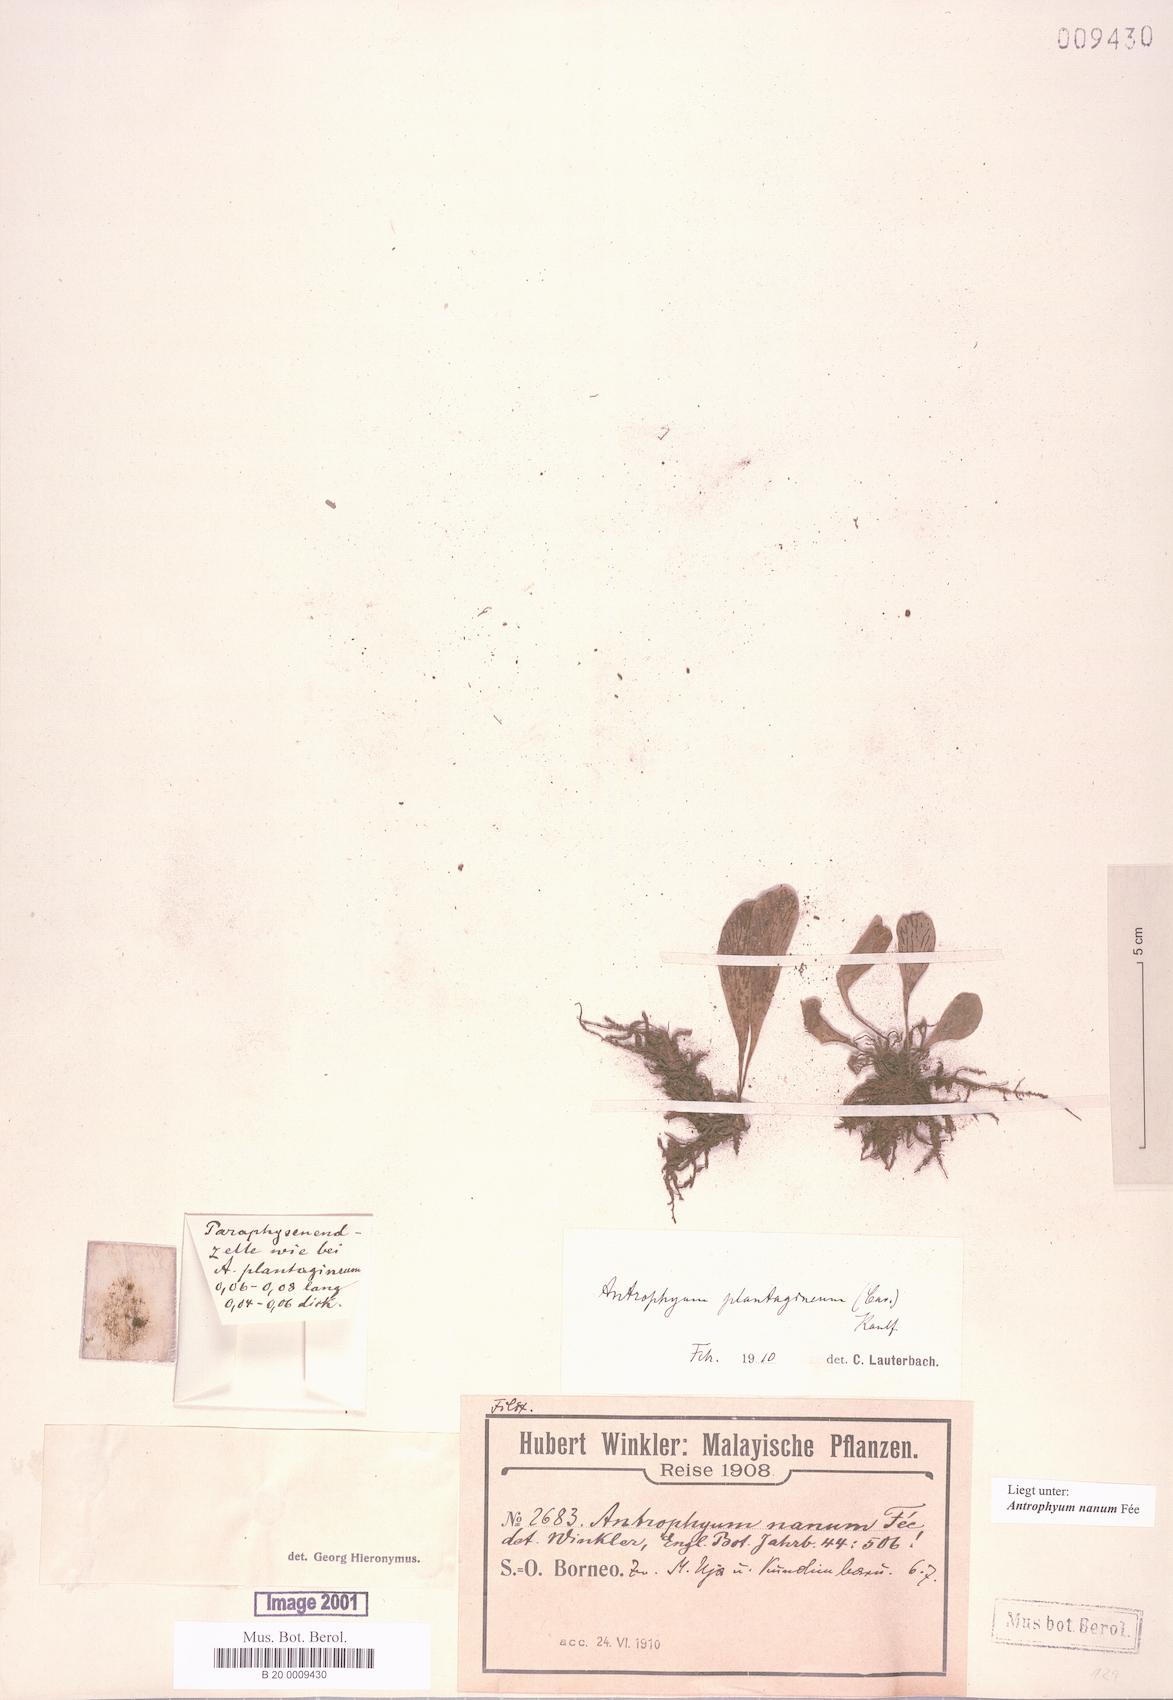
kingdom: Plantae
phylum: Tracheophyta
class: Polypodiopsida
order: Polypodiales
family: Pteridaceae
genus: Antrophyum
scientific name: Antrophyum callifolium
